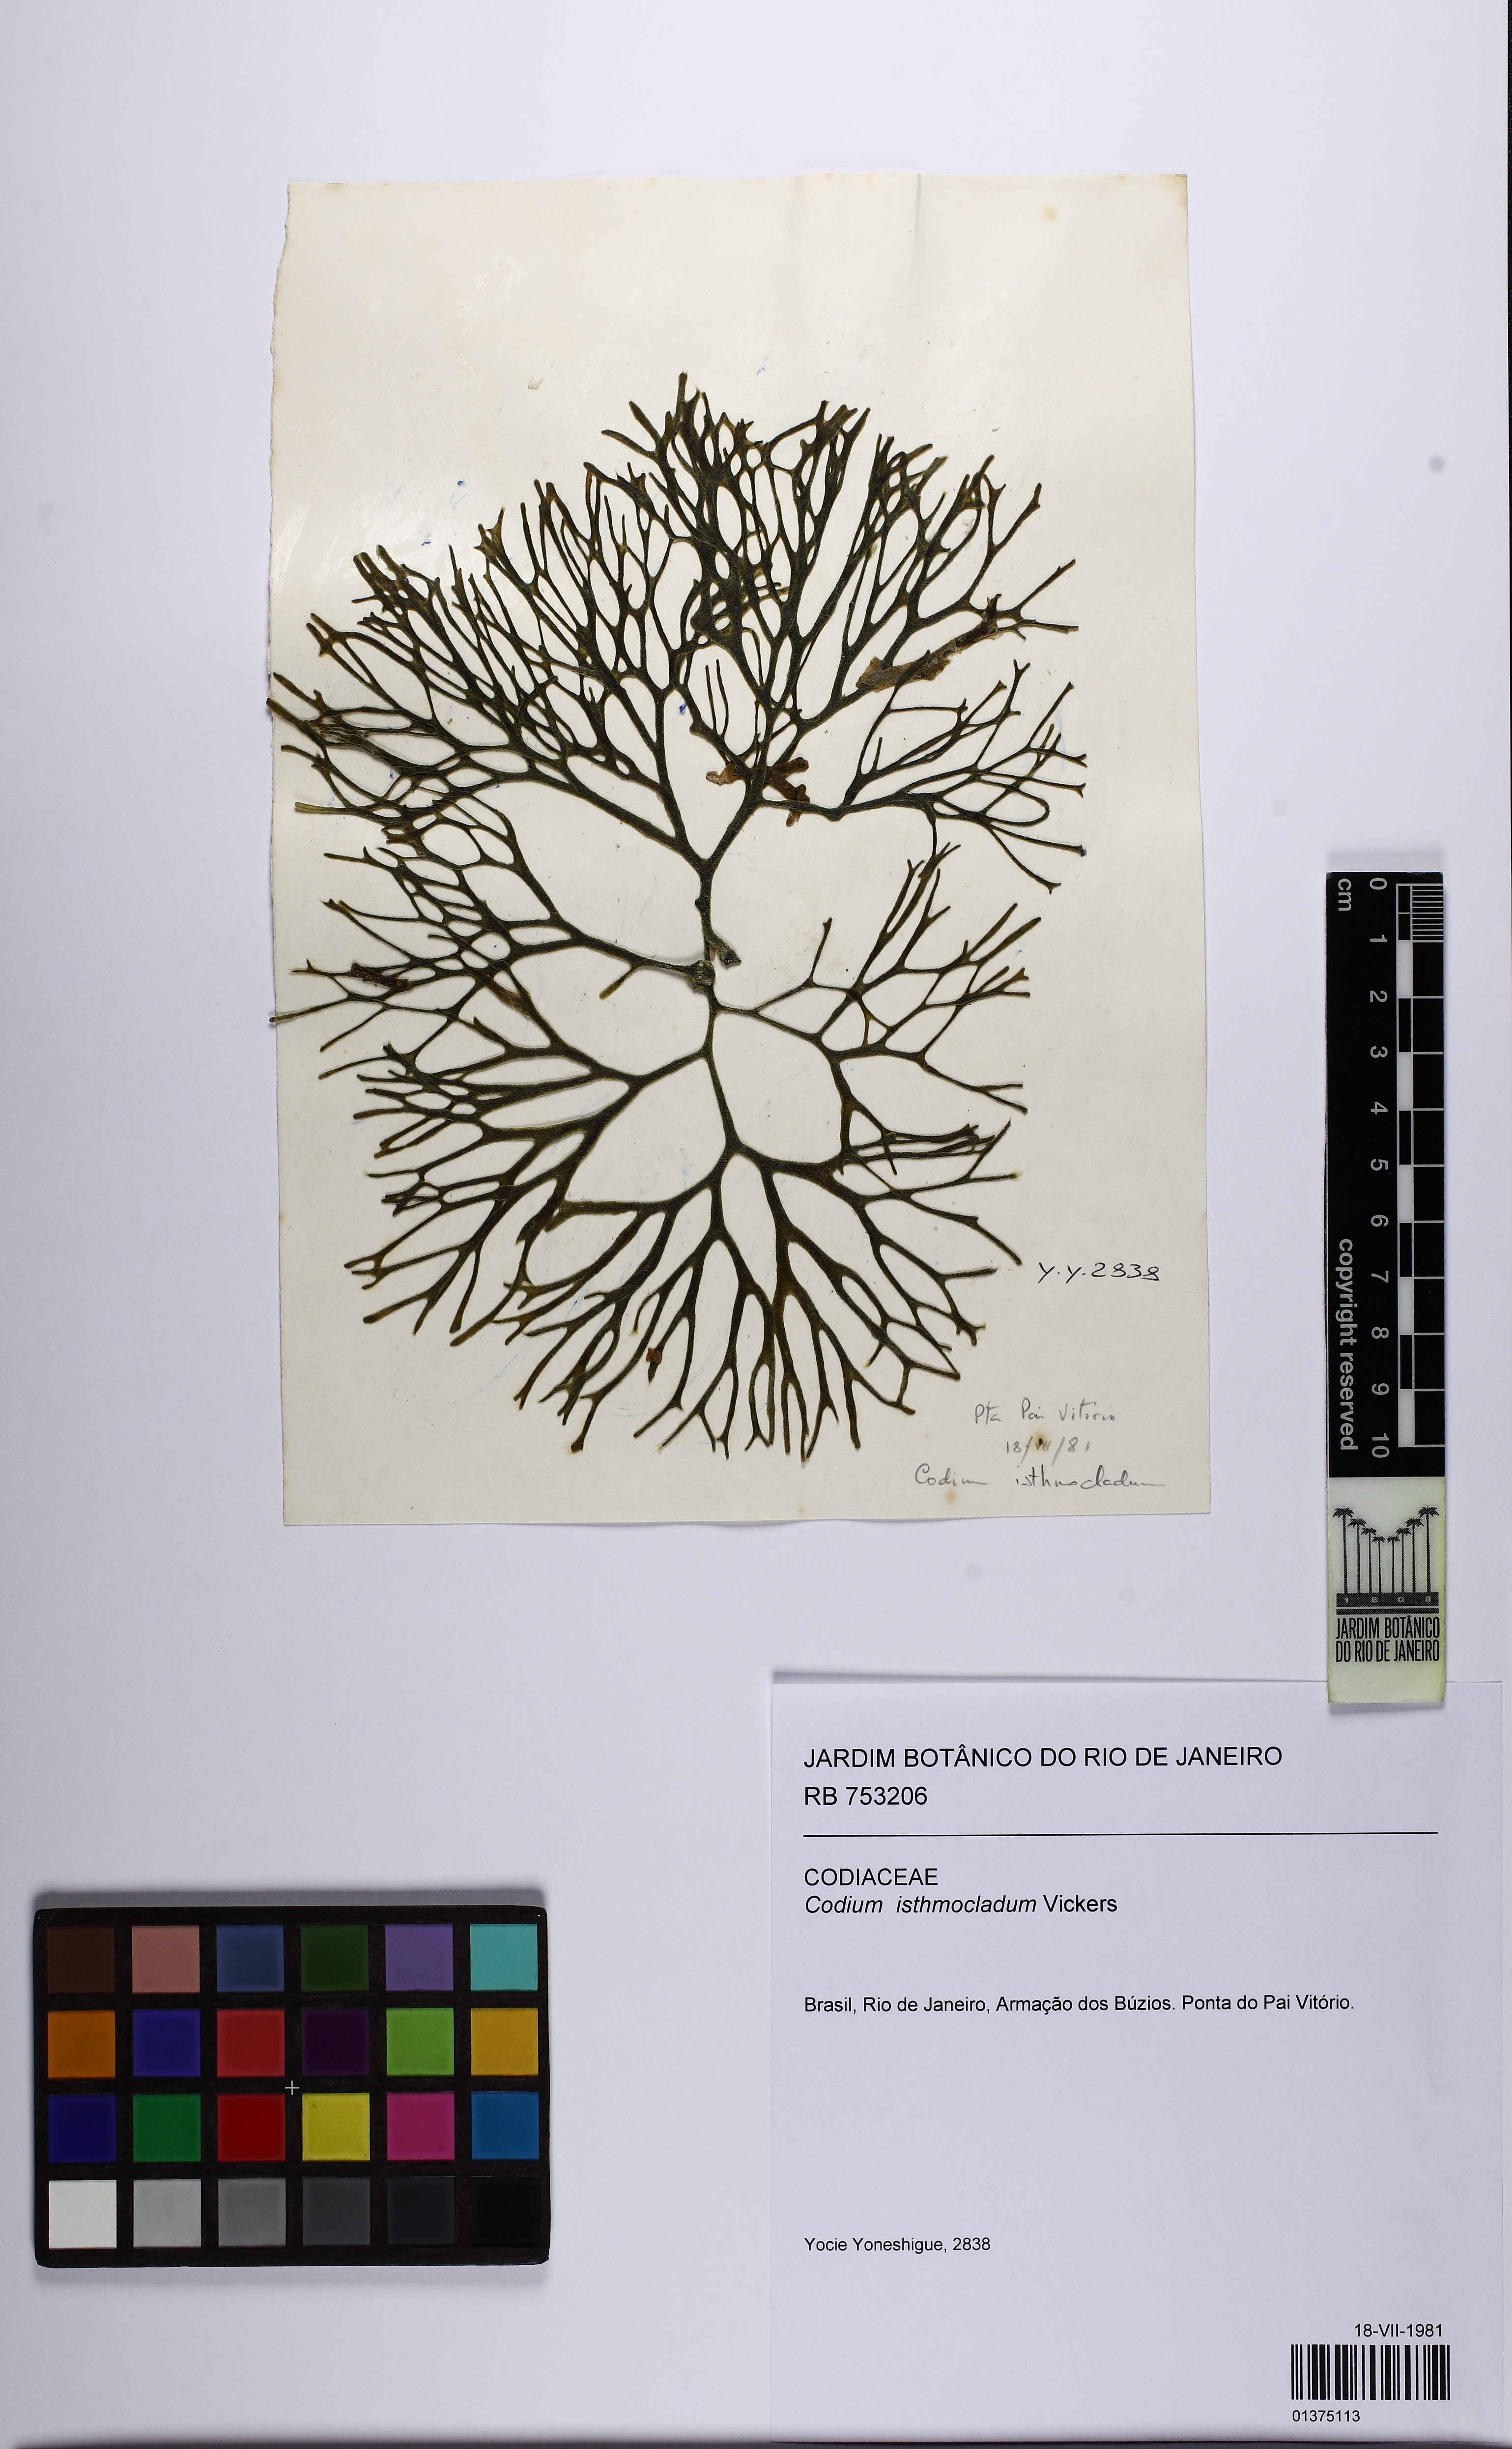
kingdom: Plantae
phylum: Chlorophyta
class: Ulvophyceae
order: Bryopsidales
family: Codiaceae
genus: Codium
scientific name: Codium isthmocladum
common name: Dead man's fingers
